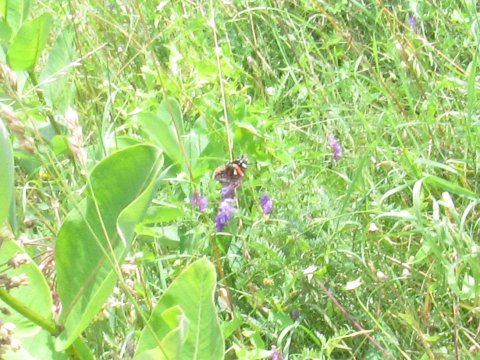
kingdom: Animalia
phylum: Arthropoda
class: Insecta
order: Lepidoptera
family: Nymphalidae
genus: Vanessa
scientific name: Vanessa atalanta
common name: Red Admiral
